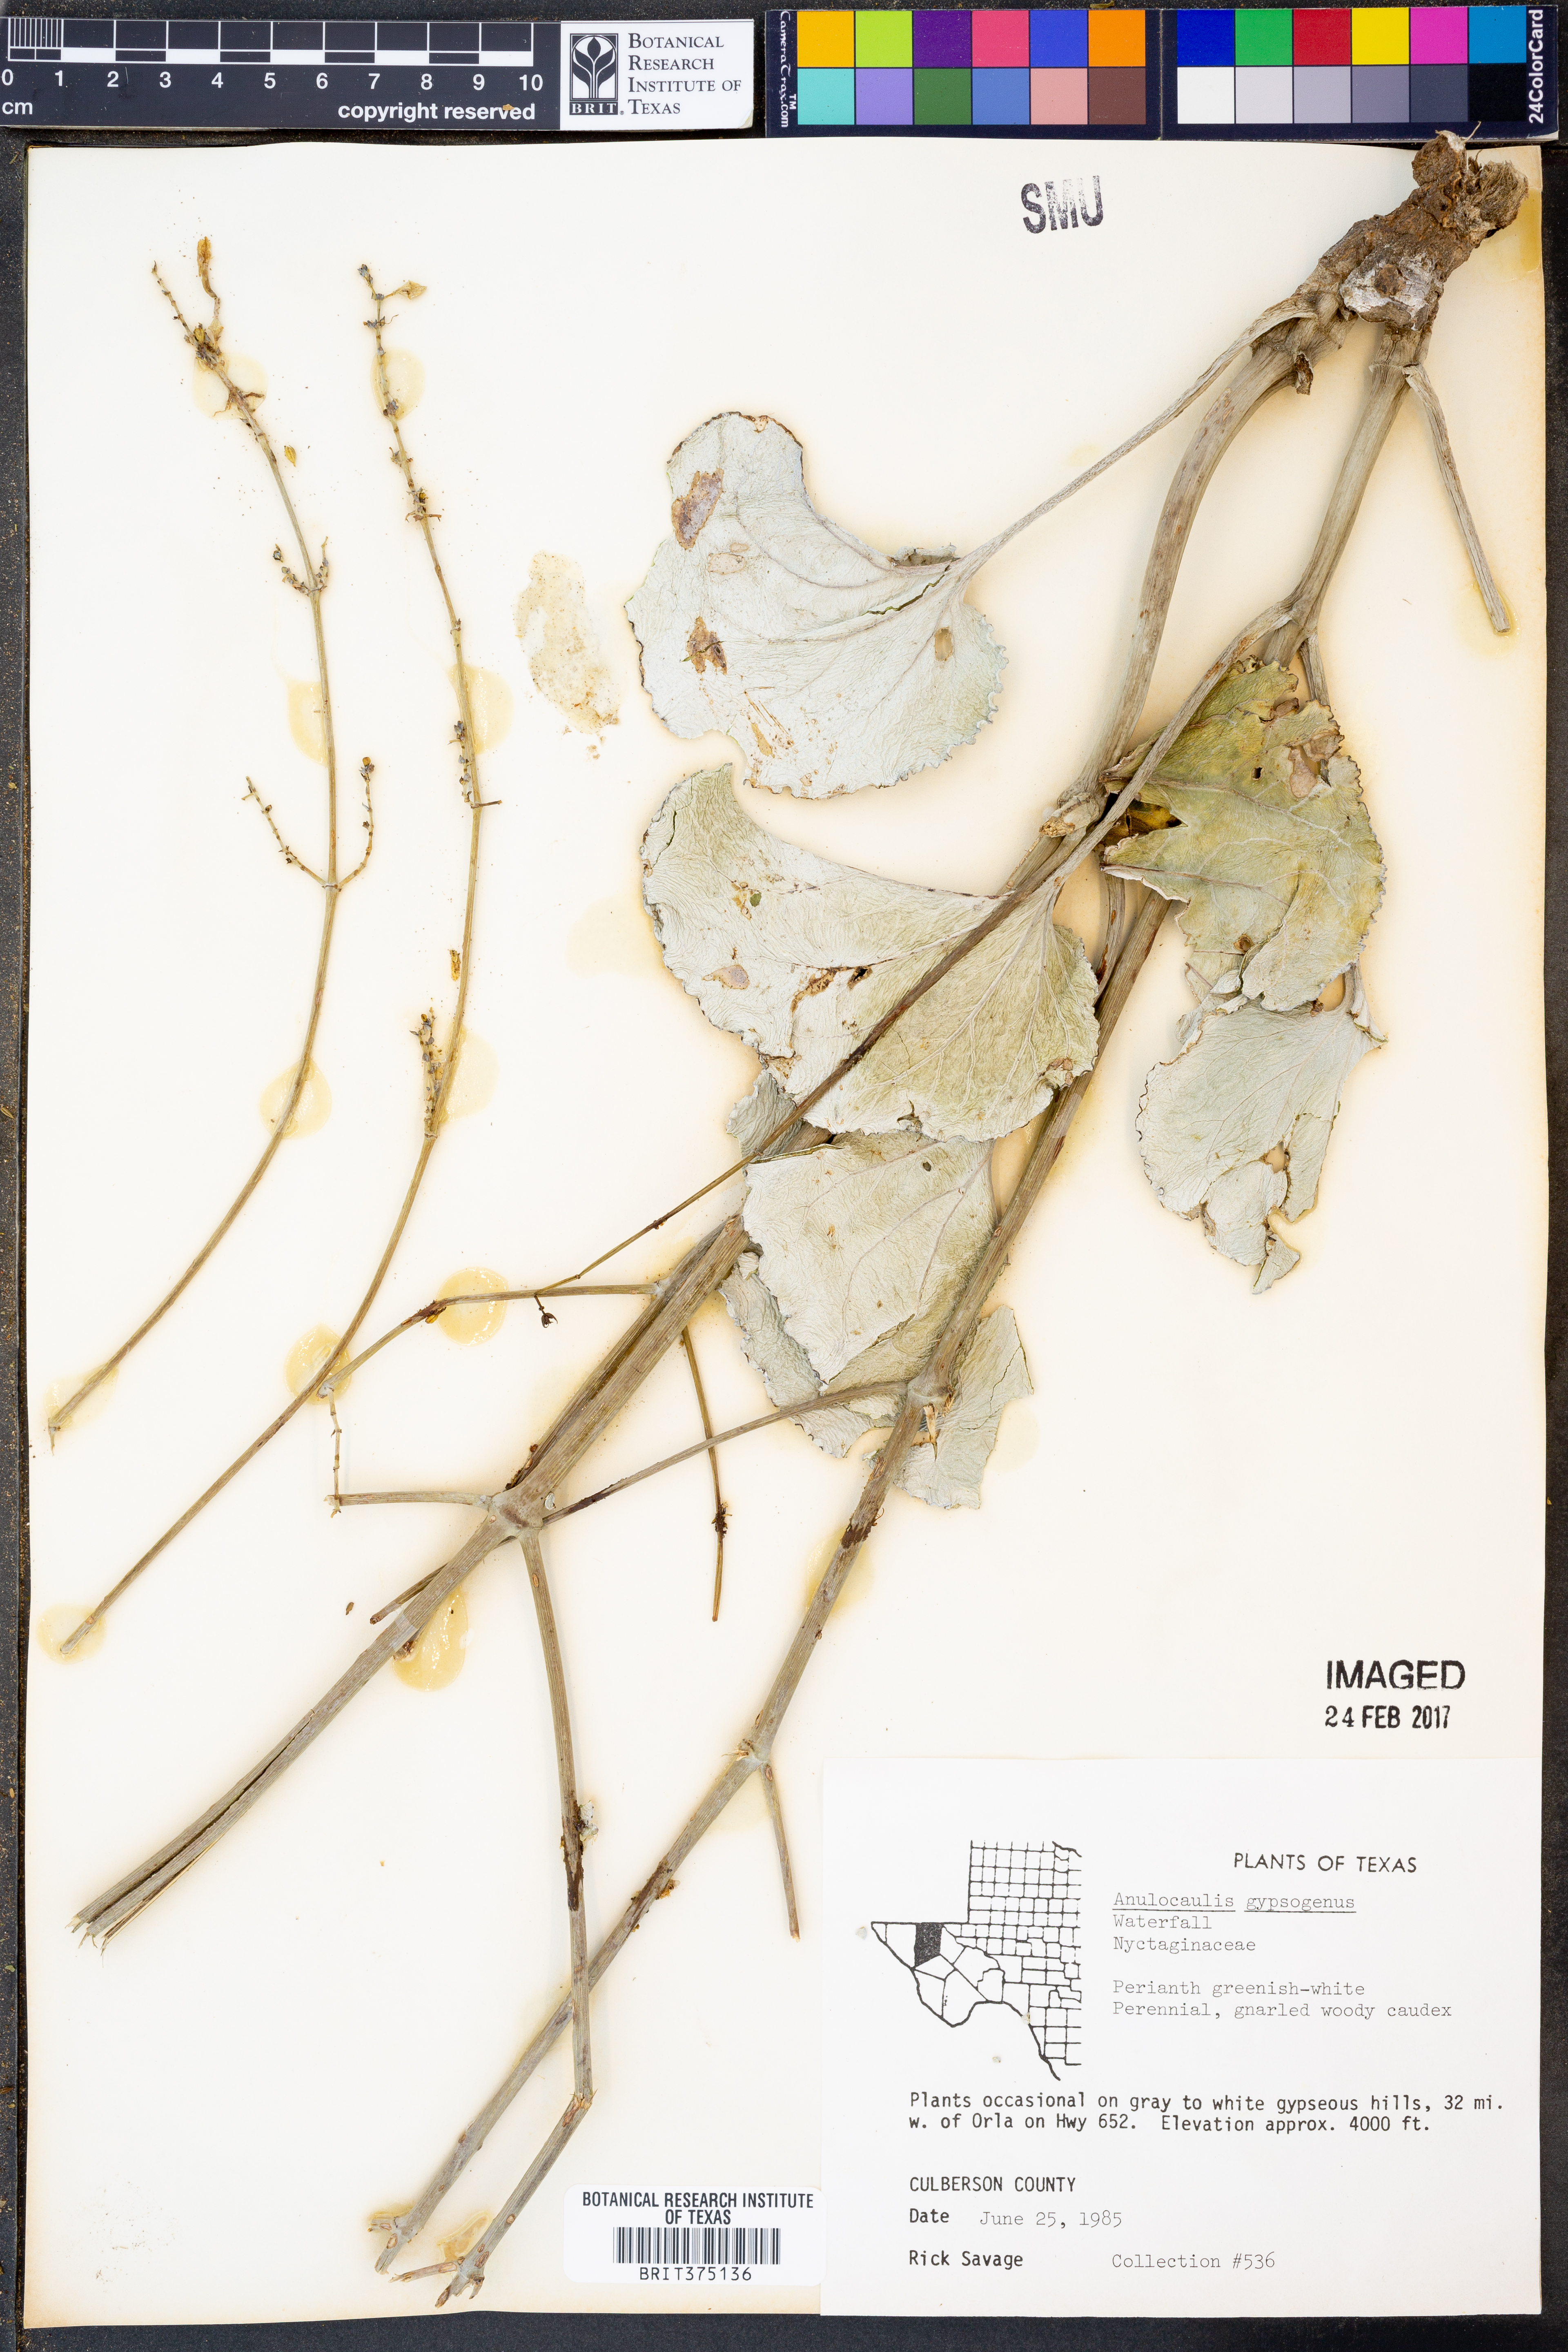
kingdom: Plantae
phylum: Tracheophyta
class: Magnoliopsida
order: Caryophyllales
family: Nyctaginaceae
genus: Anulocaulis
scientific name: Anulocaulis leiosolenus
